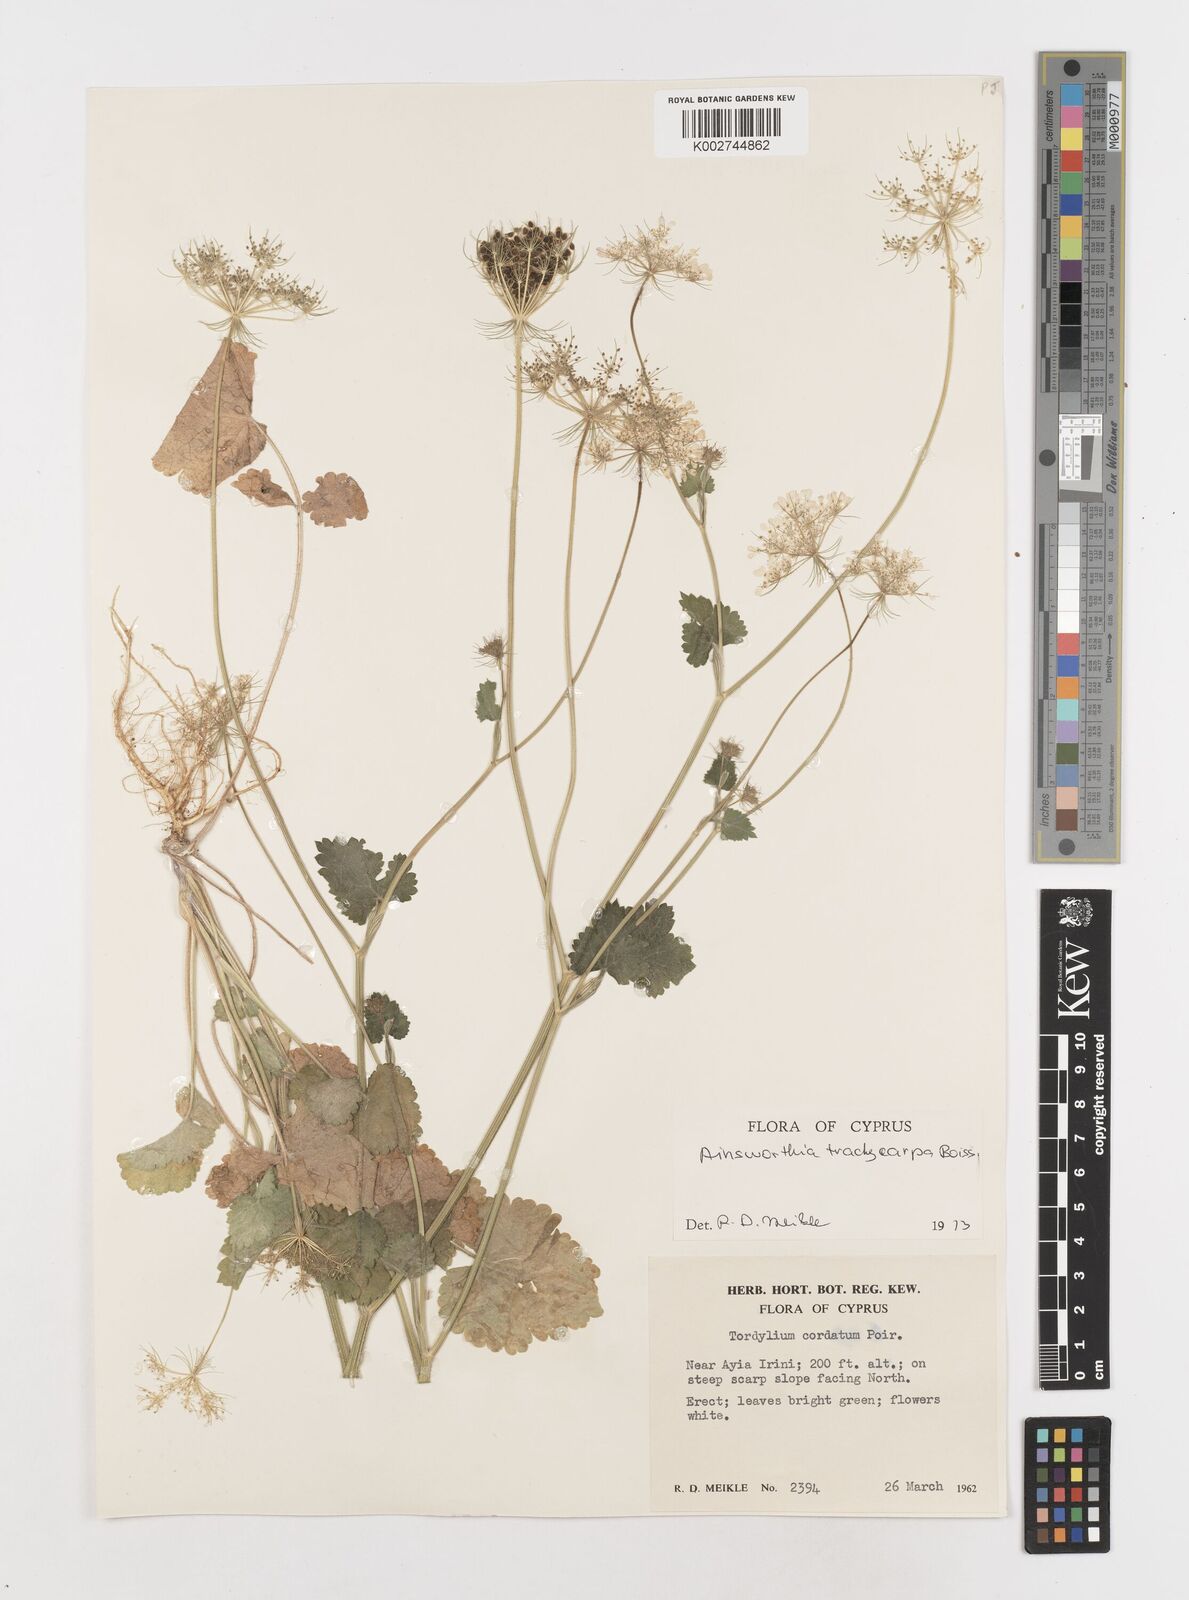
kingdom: Plantae
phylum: Tracheophyta
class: Magnoliopsida
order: Apiales
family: Apiaceae
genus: Ainsworthia
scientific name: Ainsworthia cordata
